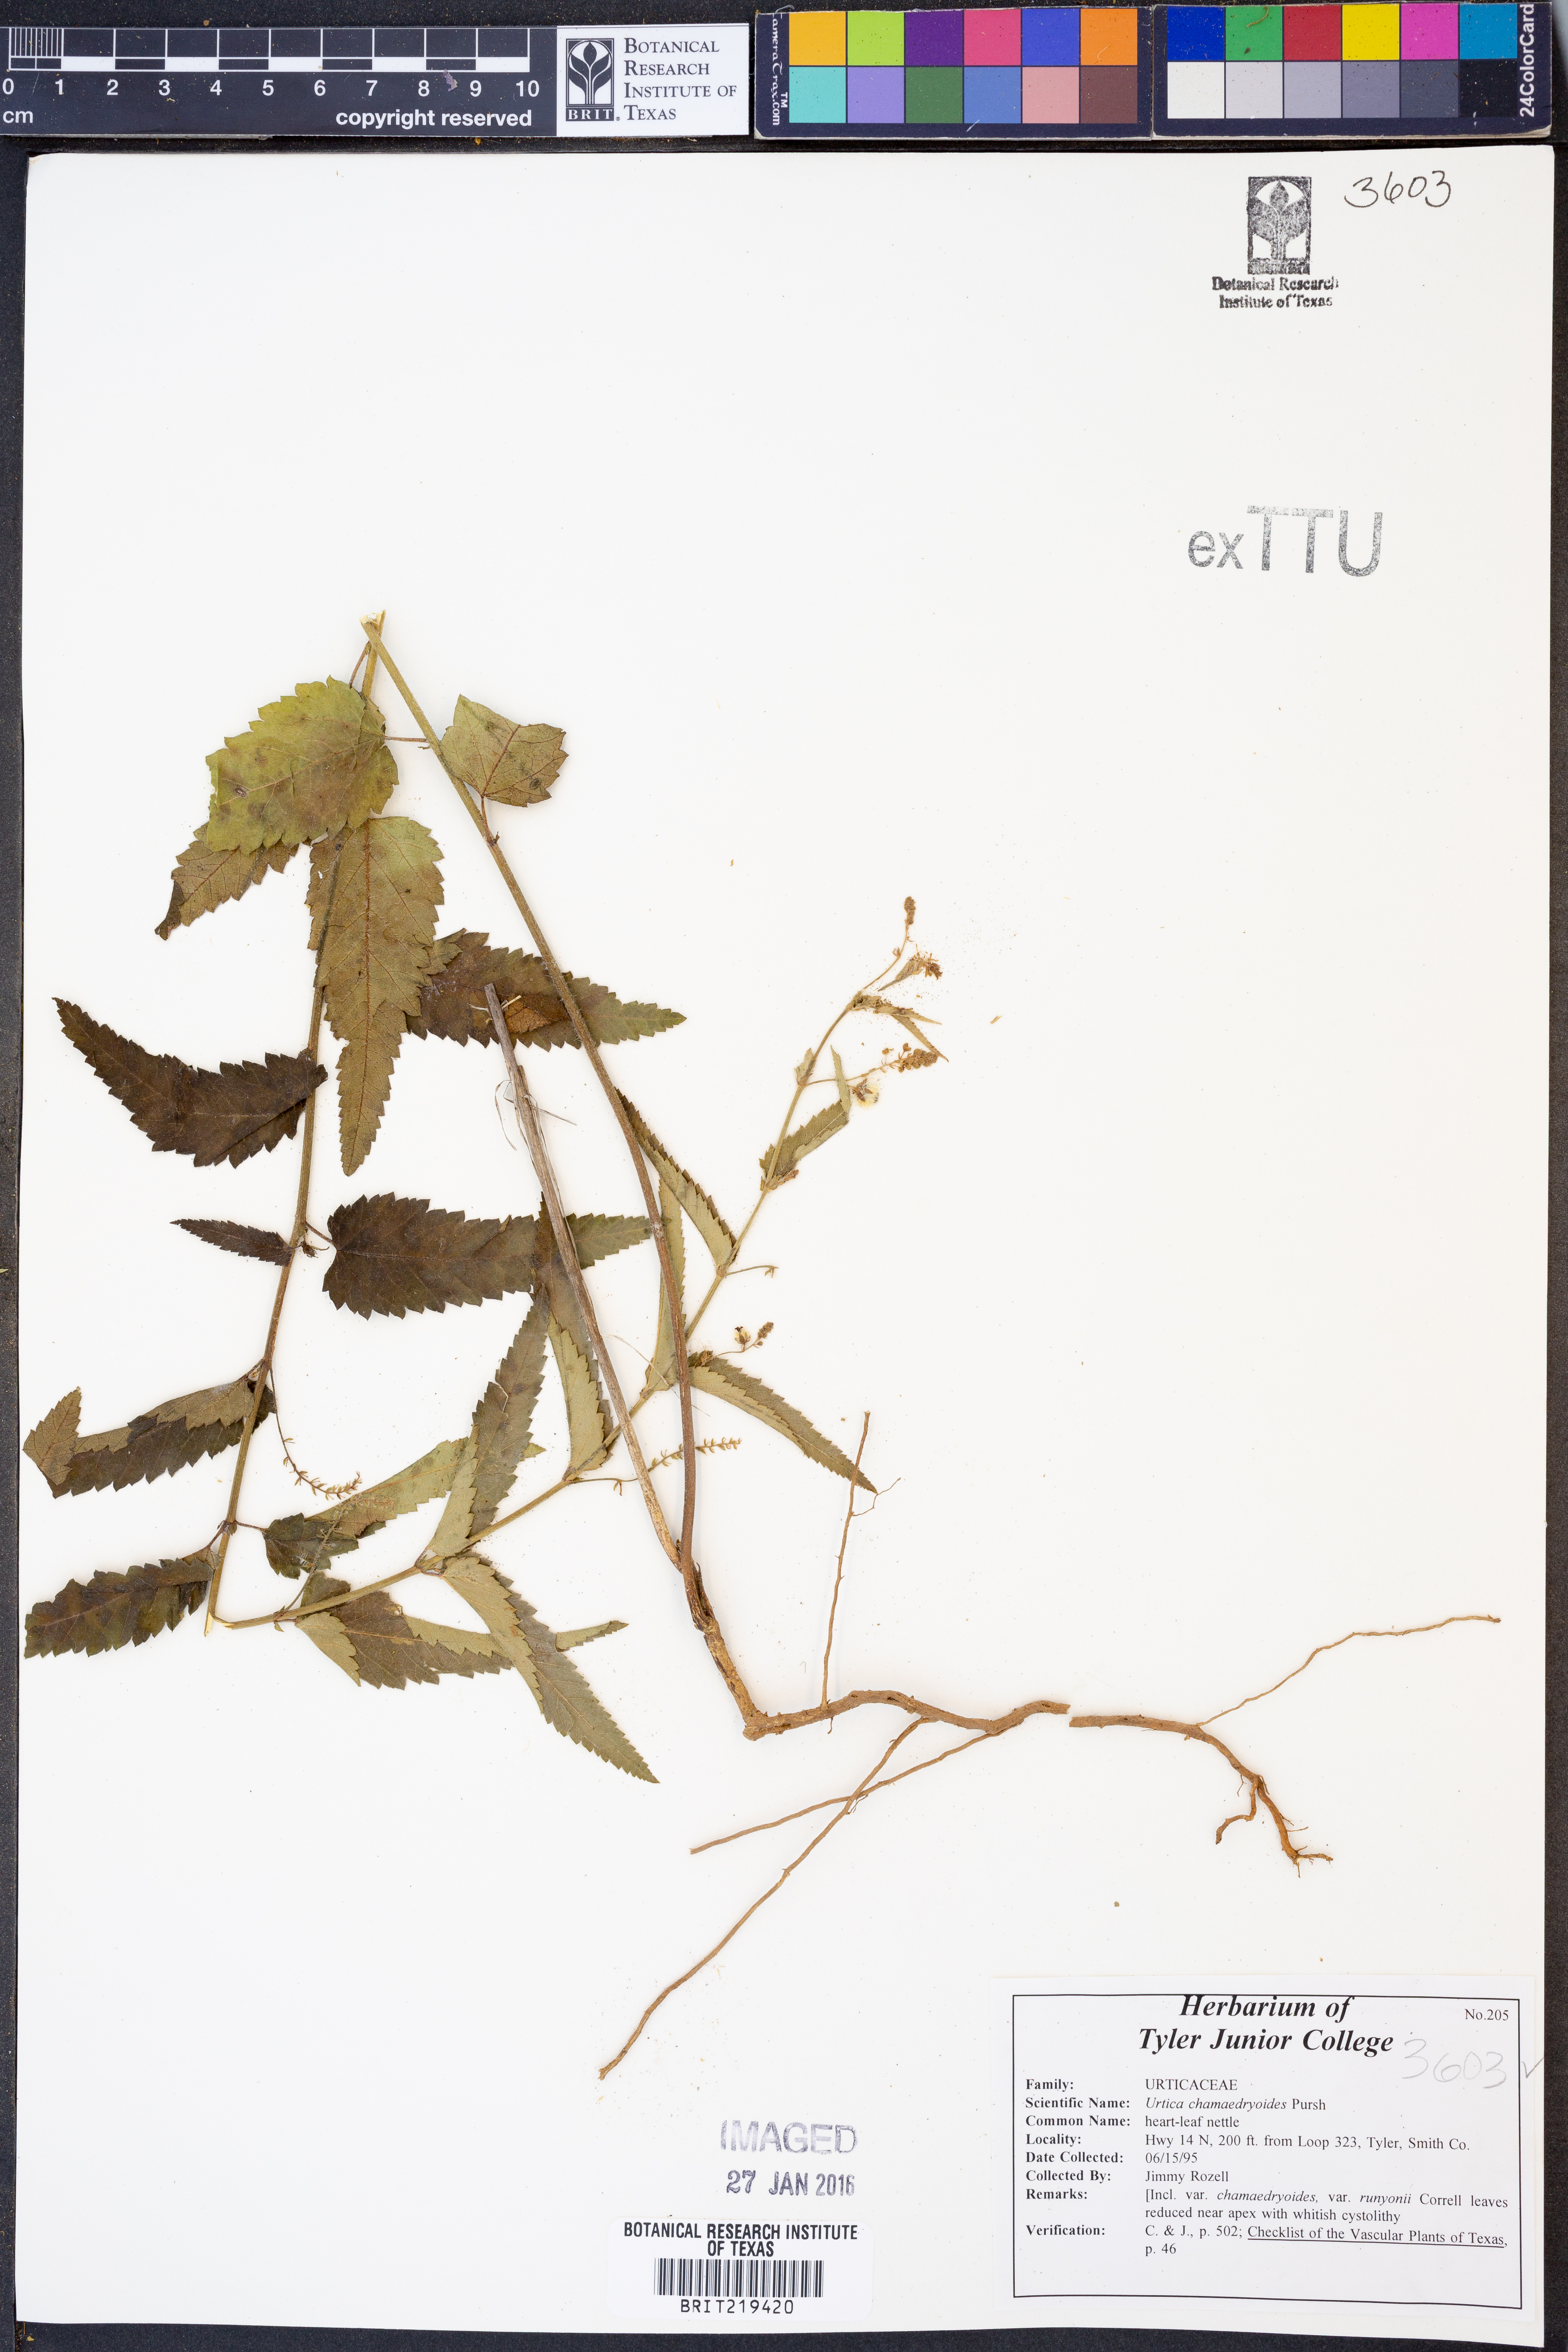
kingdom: Plantae
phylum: Tracheophyta
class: Magnoliopsida
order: Rosales
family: Urticaceae
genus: Urtica
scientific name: Urtica chamaedryoides
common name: Heart-leaf nettle
